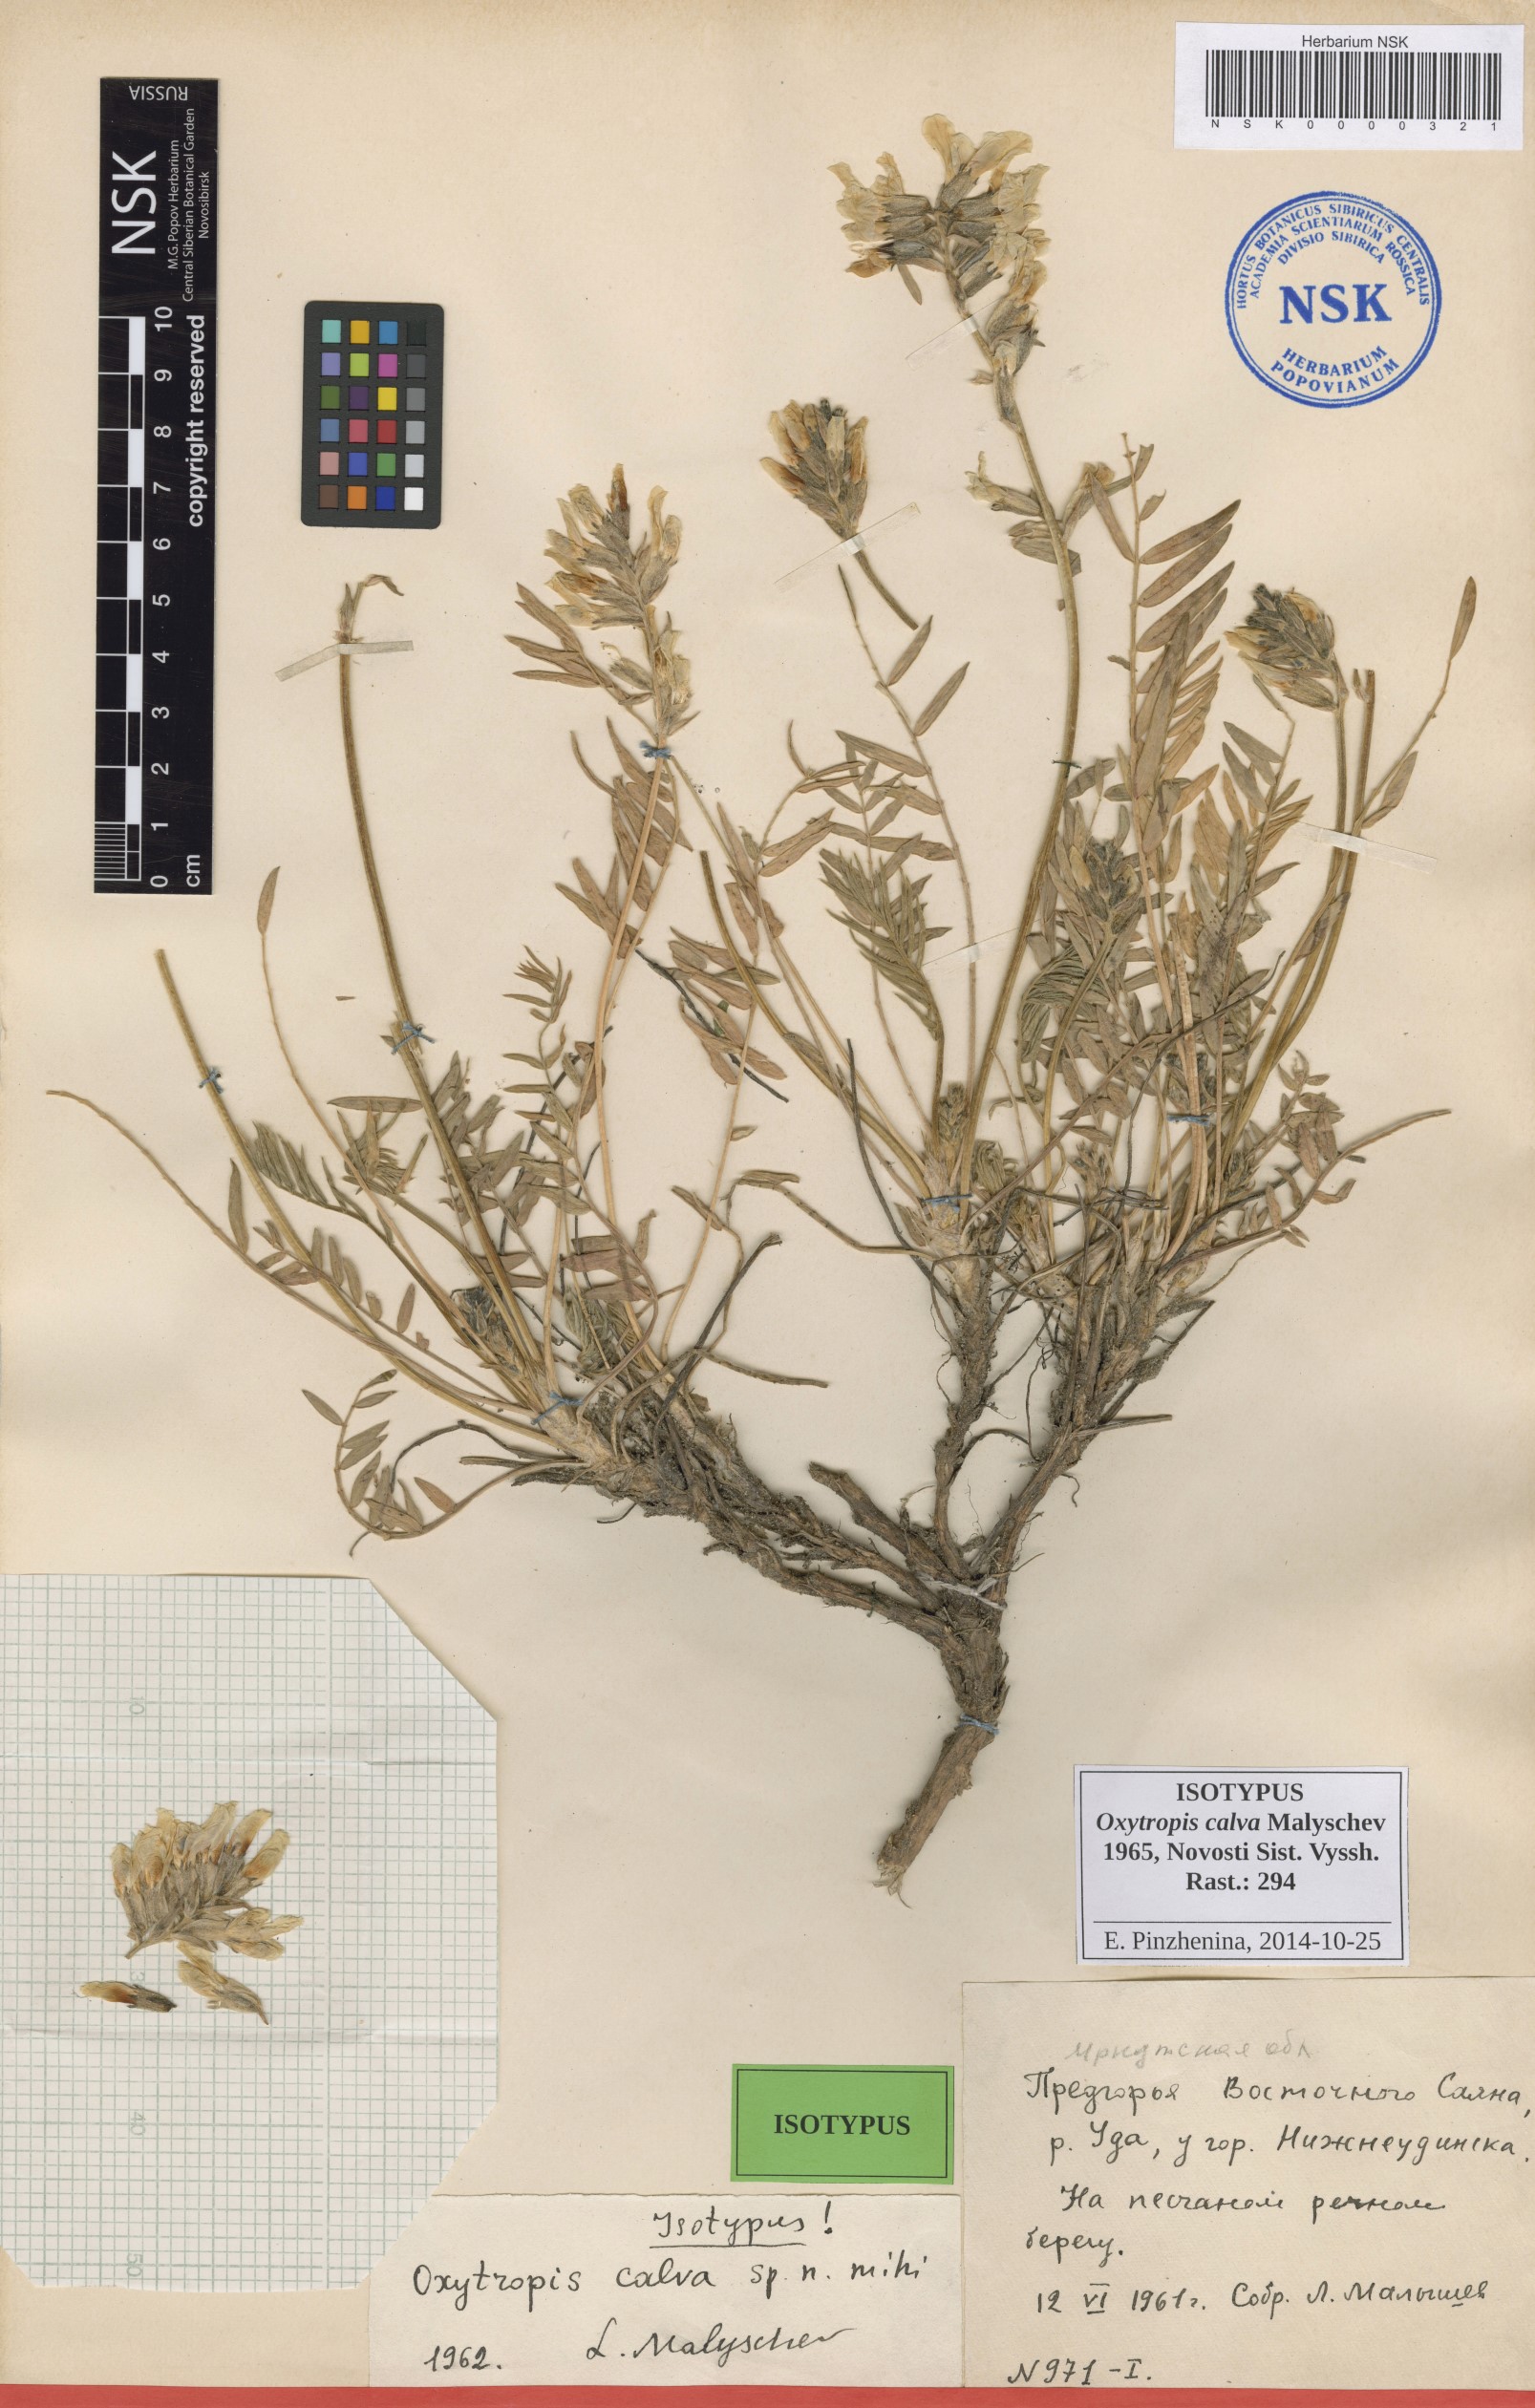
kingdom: Plantae
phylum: Tracheophyta
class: Magnoliopsida
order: Fabales
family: Fabaceae
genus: Oxytropis
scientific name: Oxytropis calva
